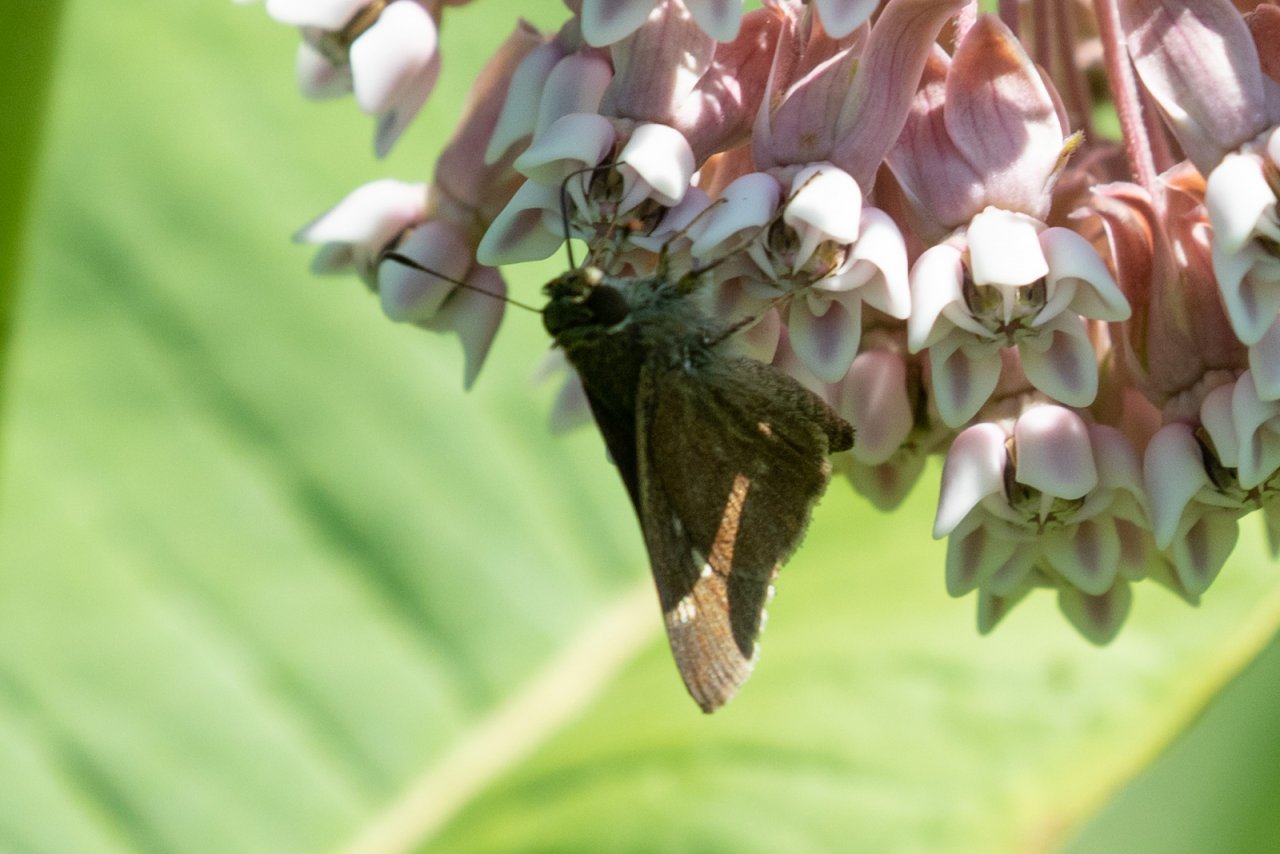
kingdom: Animalia
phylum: Arthropoda
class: Insecta
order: Lepidoptera
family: Hesperiidae
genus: Vernia
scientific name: Vernia verna
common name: Little Glassywing
